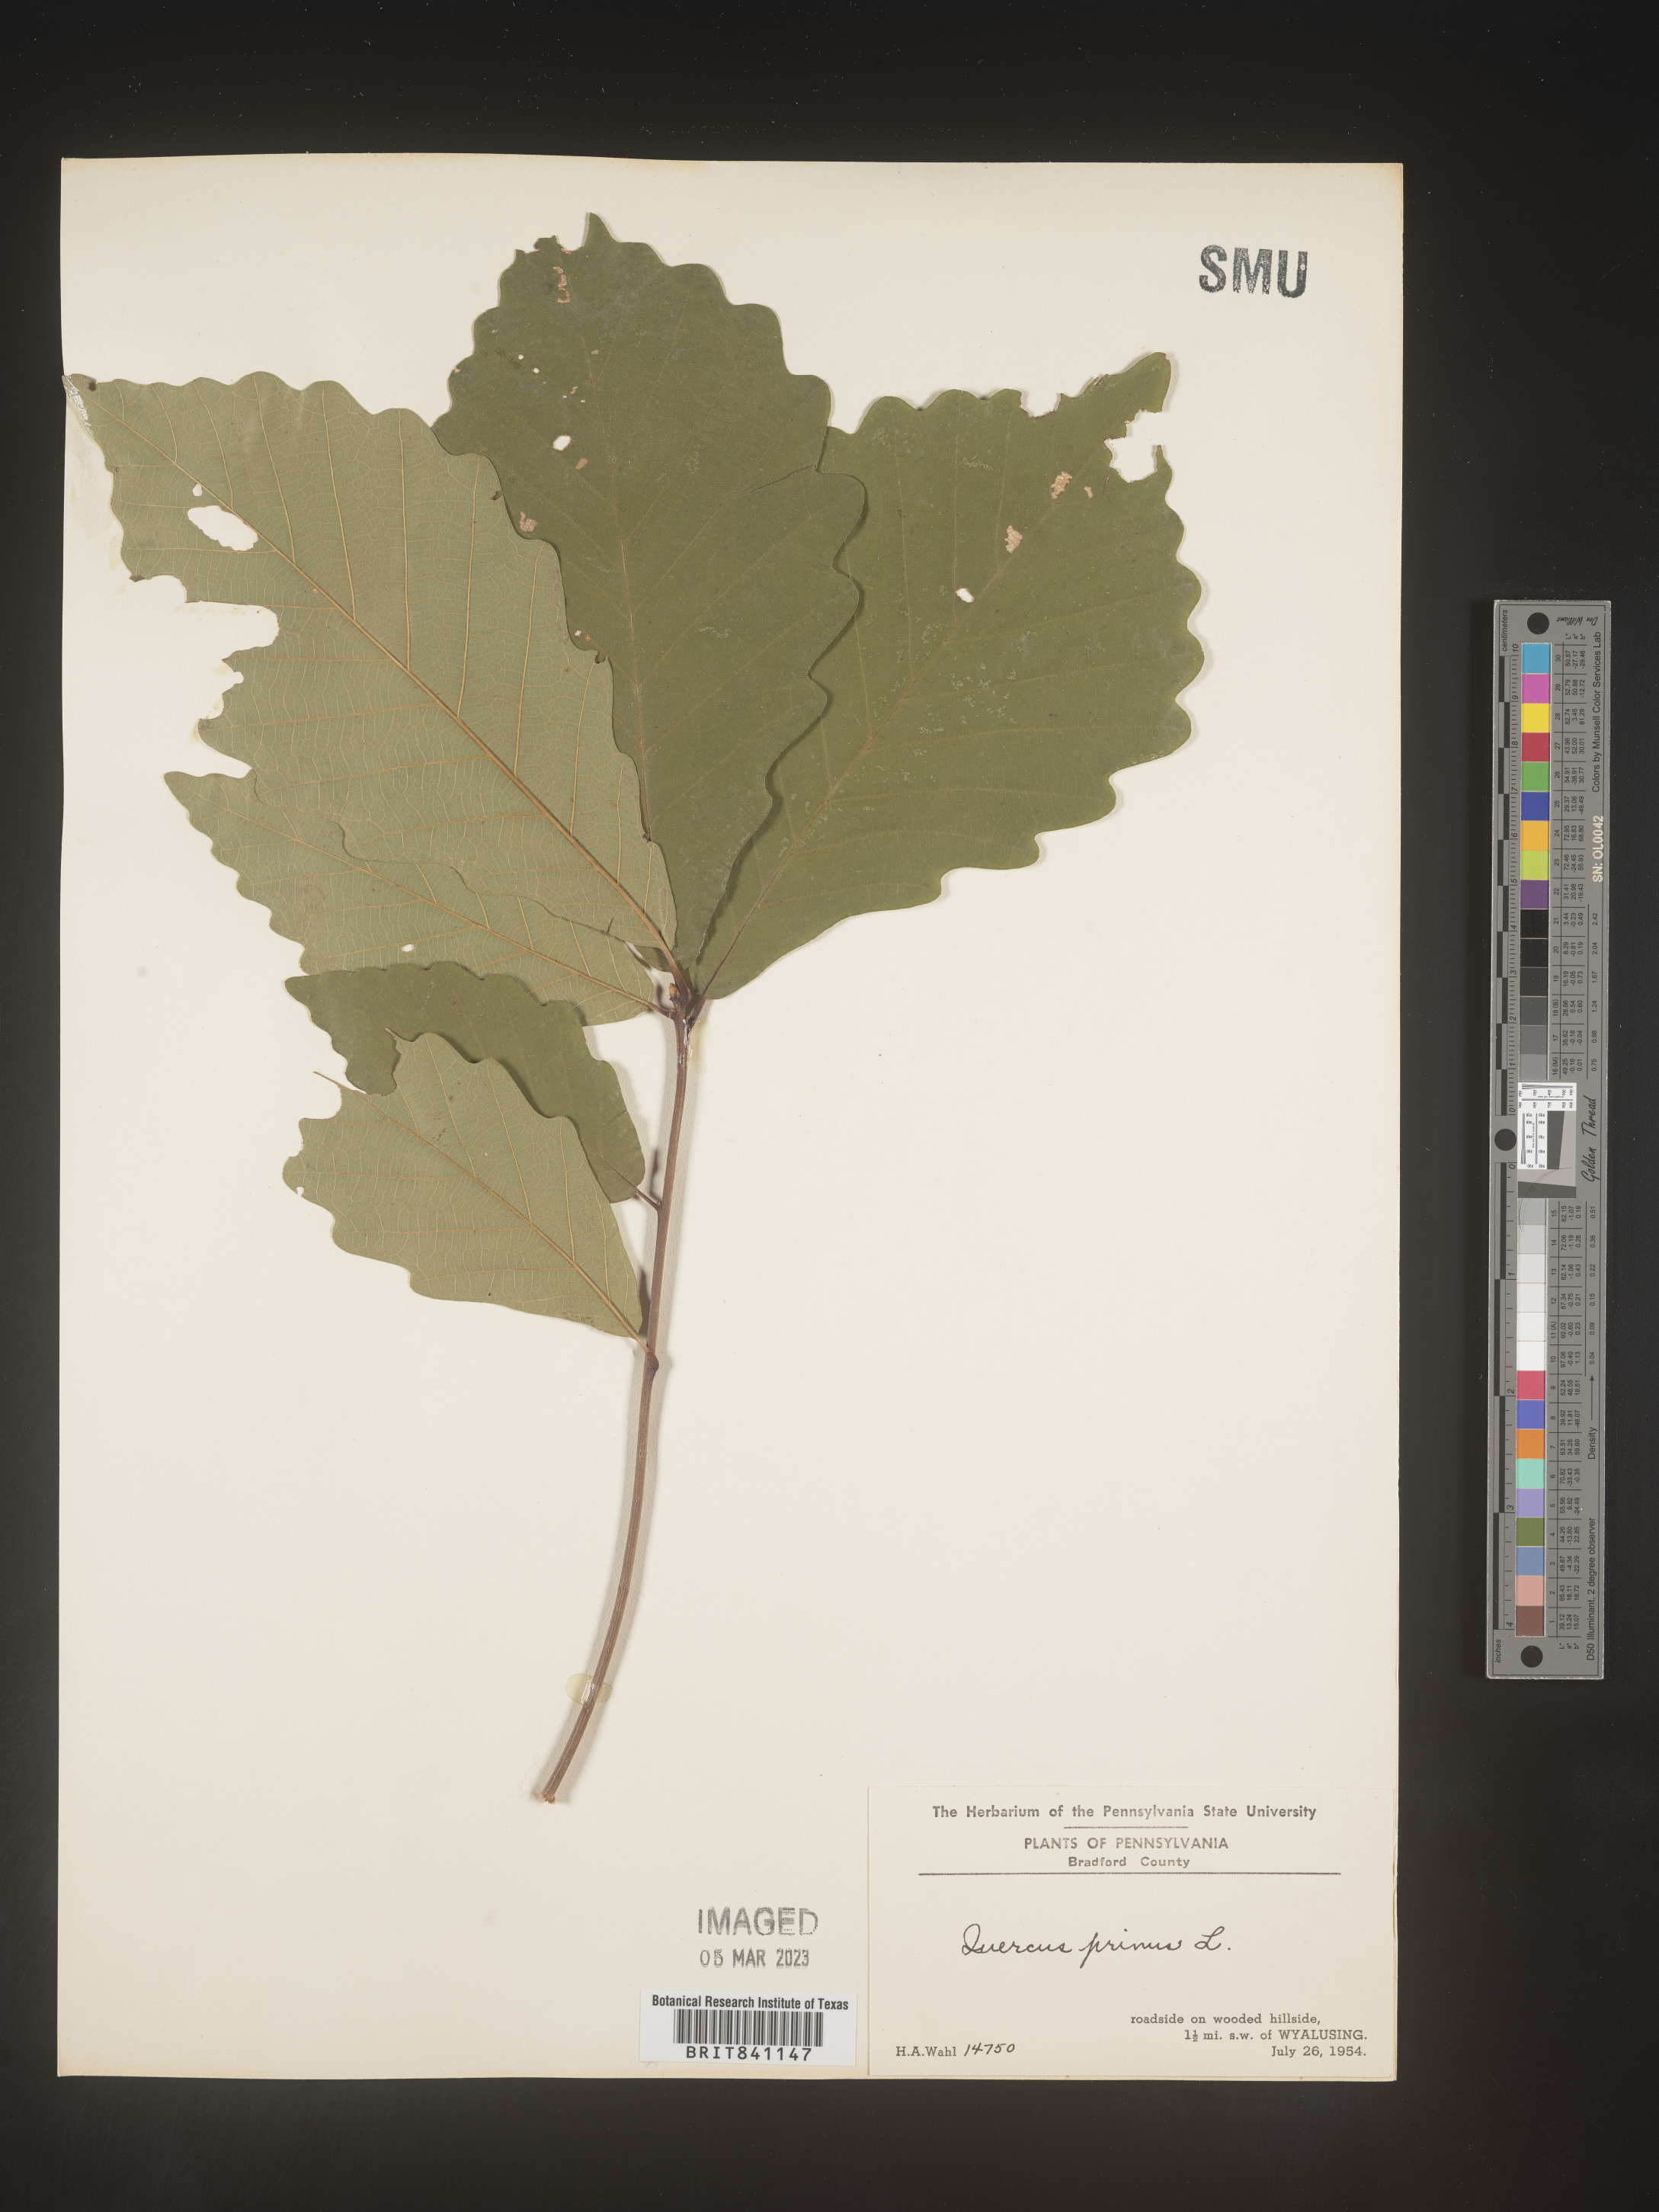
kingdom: Plantae
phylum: Tracheophyta
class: Magnoliopsida
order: Fagales
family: Fagaceae
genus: Quercus
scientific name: Quercus michauxii
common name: Swamp chestnut oak
